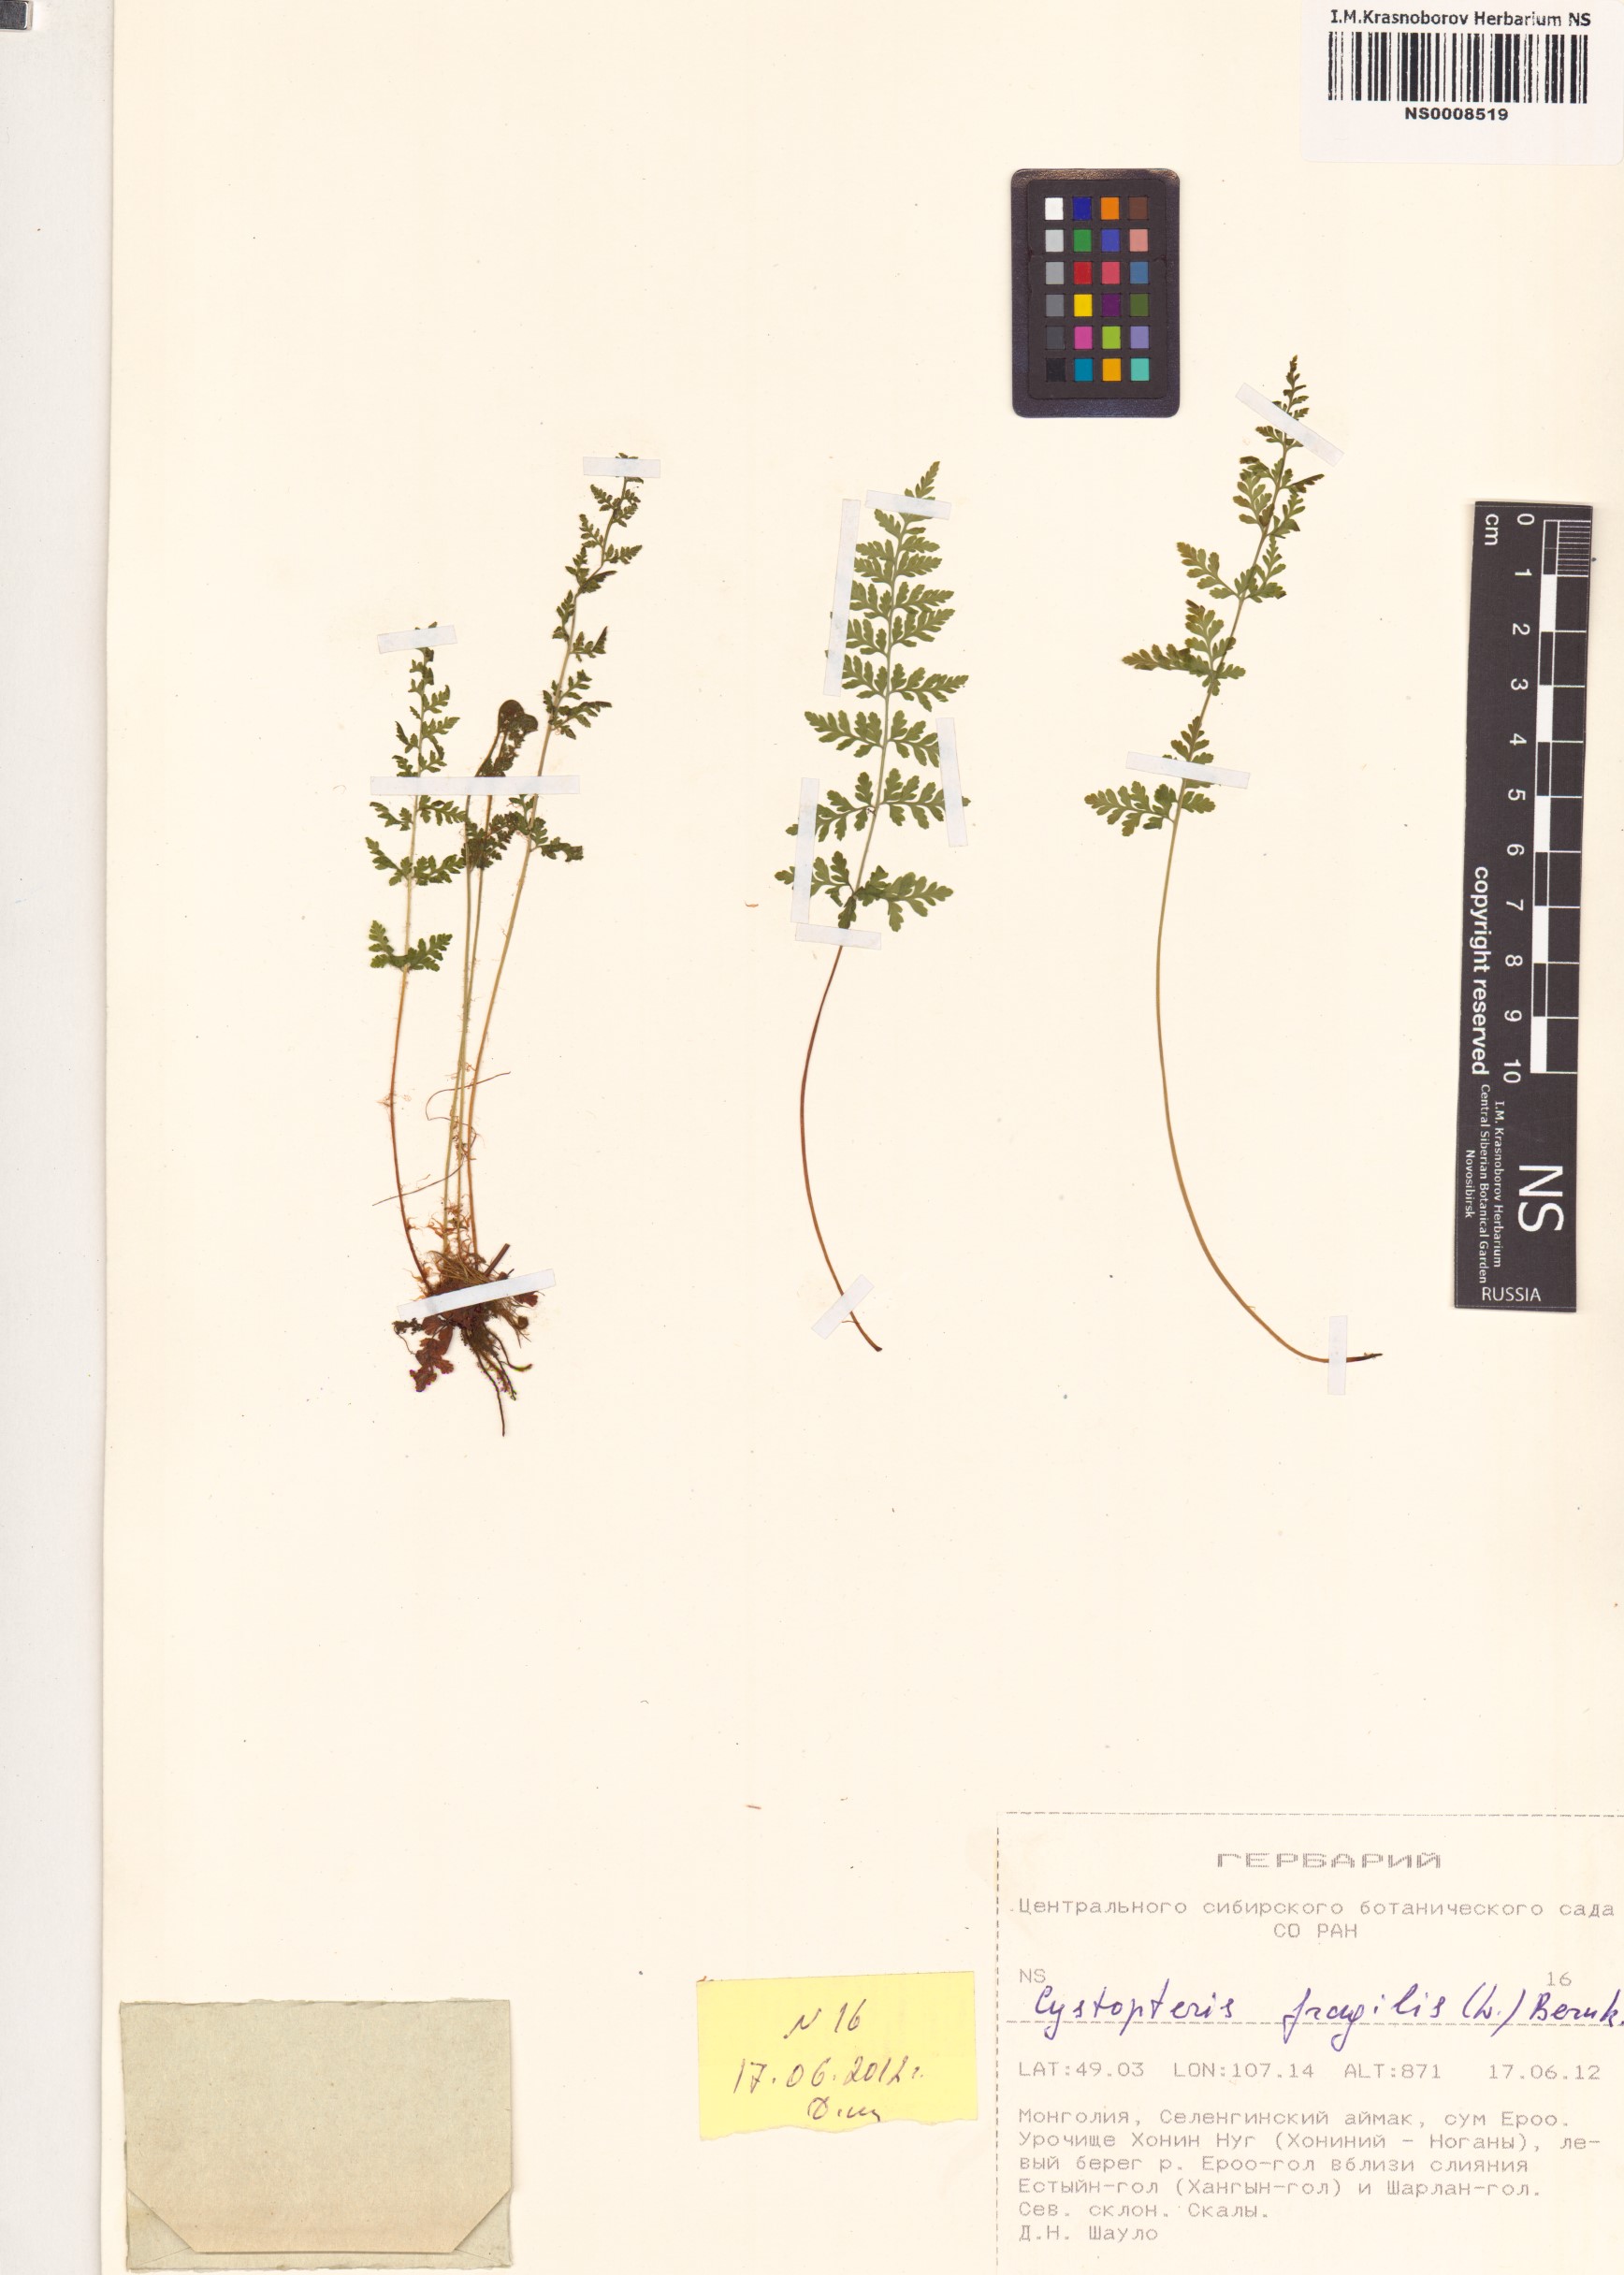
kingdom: Plantae
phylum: Tracheophyta
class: Polypodiopsida
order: Polypodiales
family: Cystopteridaceae
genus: Cystopteris
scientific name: Cystopteris fragilis
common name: Brittle bladder fern
